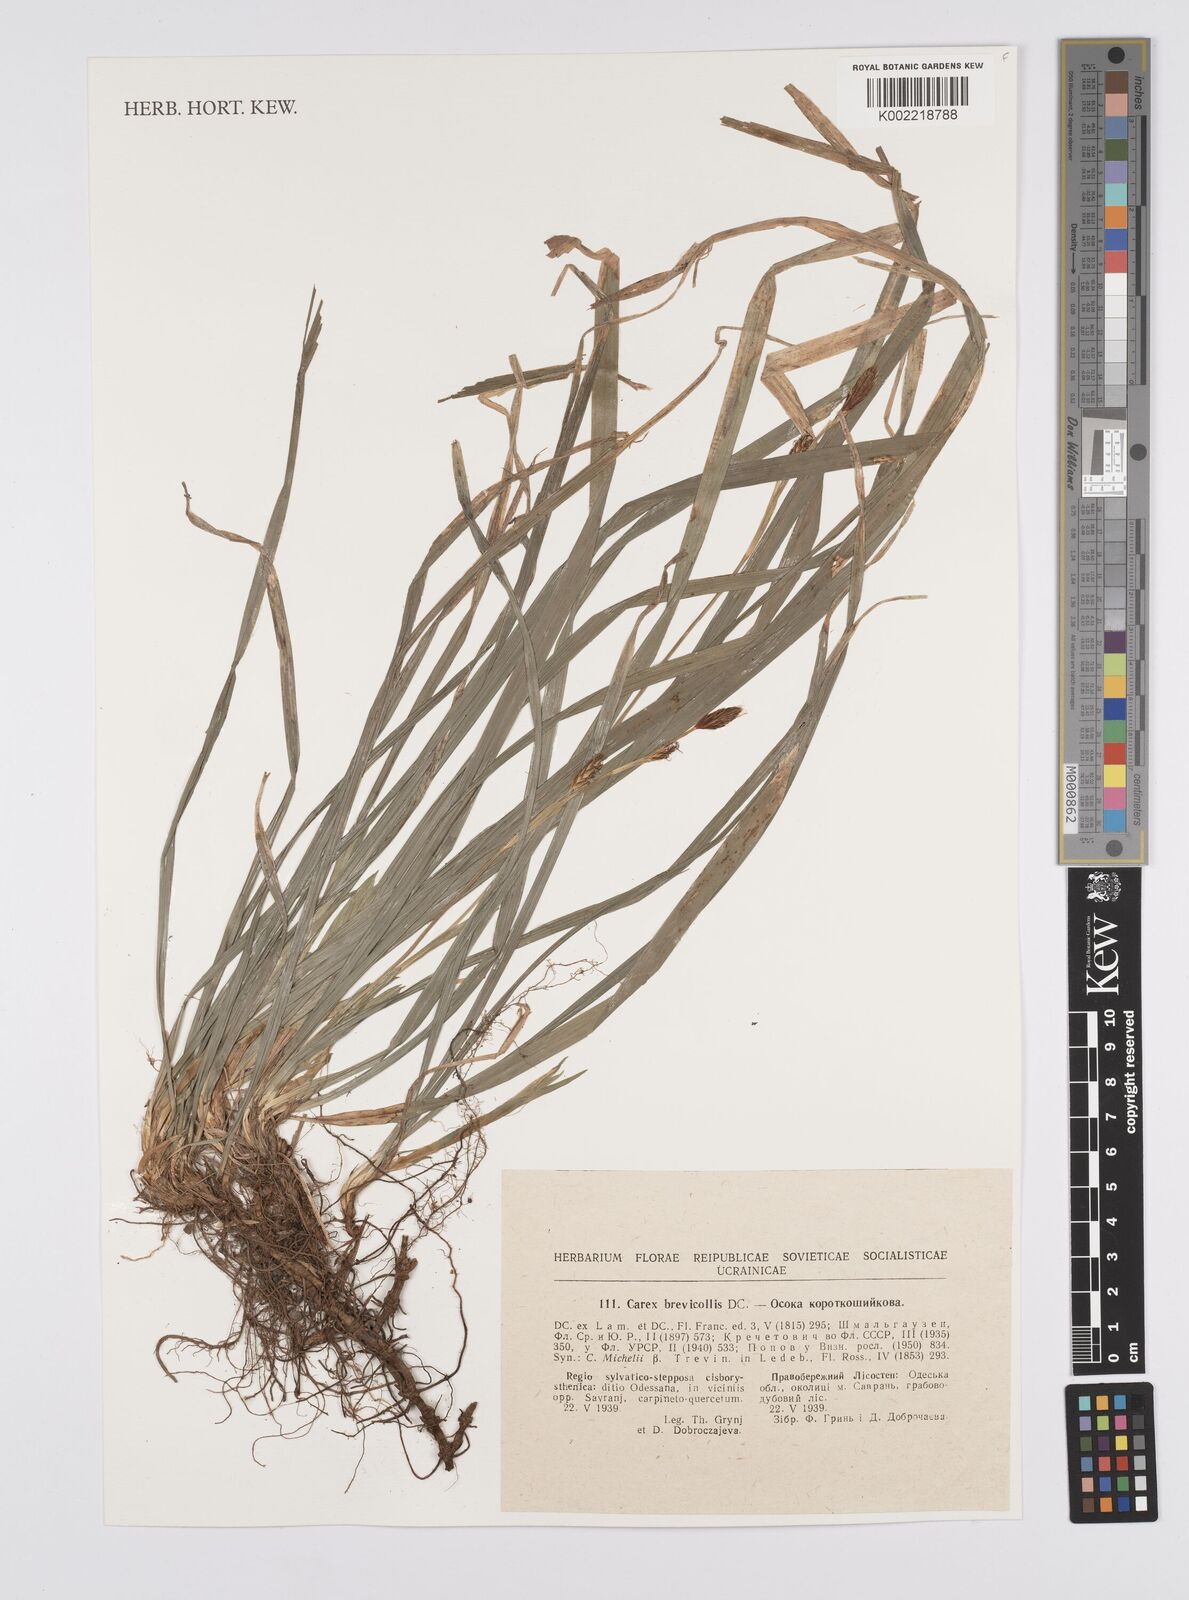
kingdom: Plantae
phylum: Tracheophyta
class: Liliopsida
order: Poales
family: Cyperaceae
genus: Carex
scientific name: Carex brevicollis
